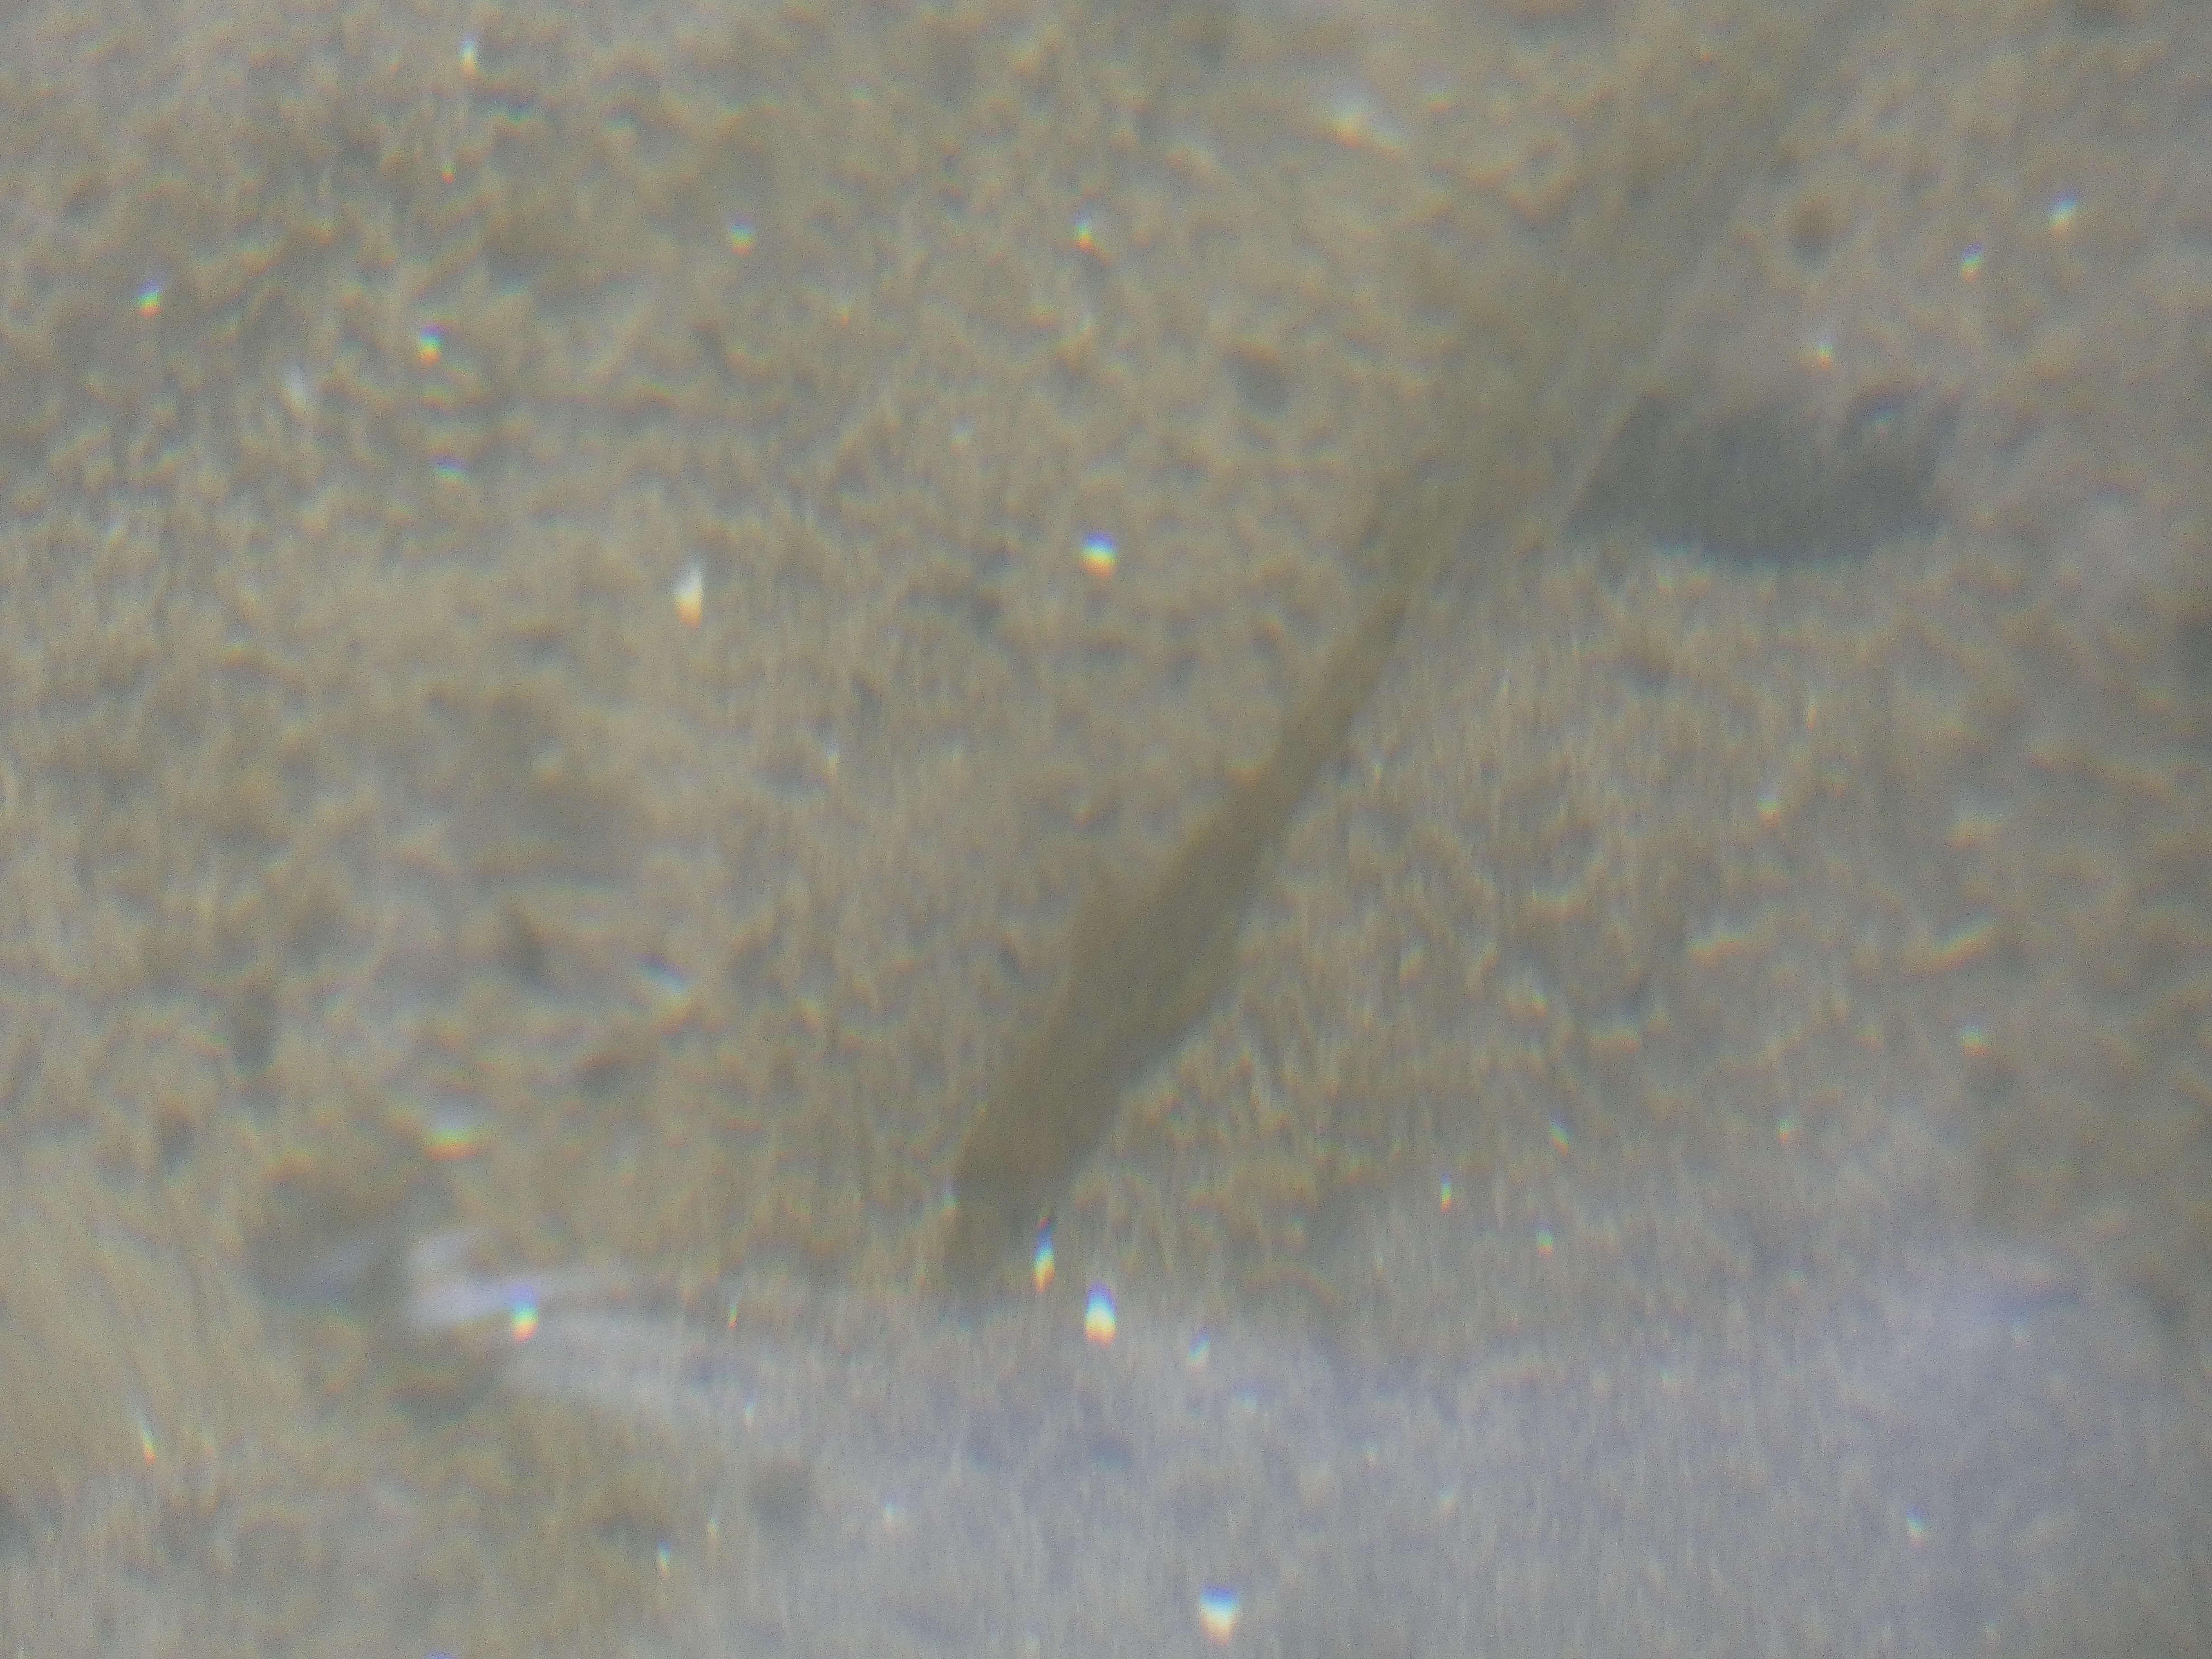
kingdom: Animalia
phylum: Chordata
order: Gasterosteiformes
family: Gasterosteidae
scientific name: Gasterosteidae
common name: Hundestejlefamilien
